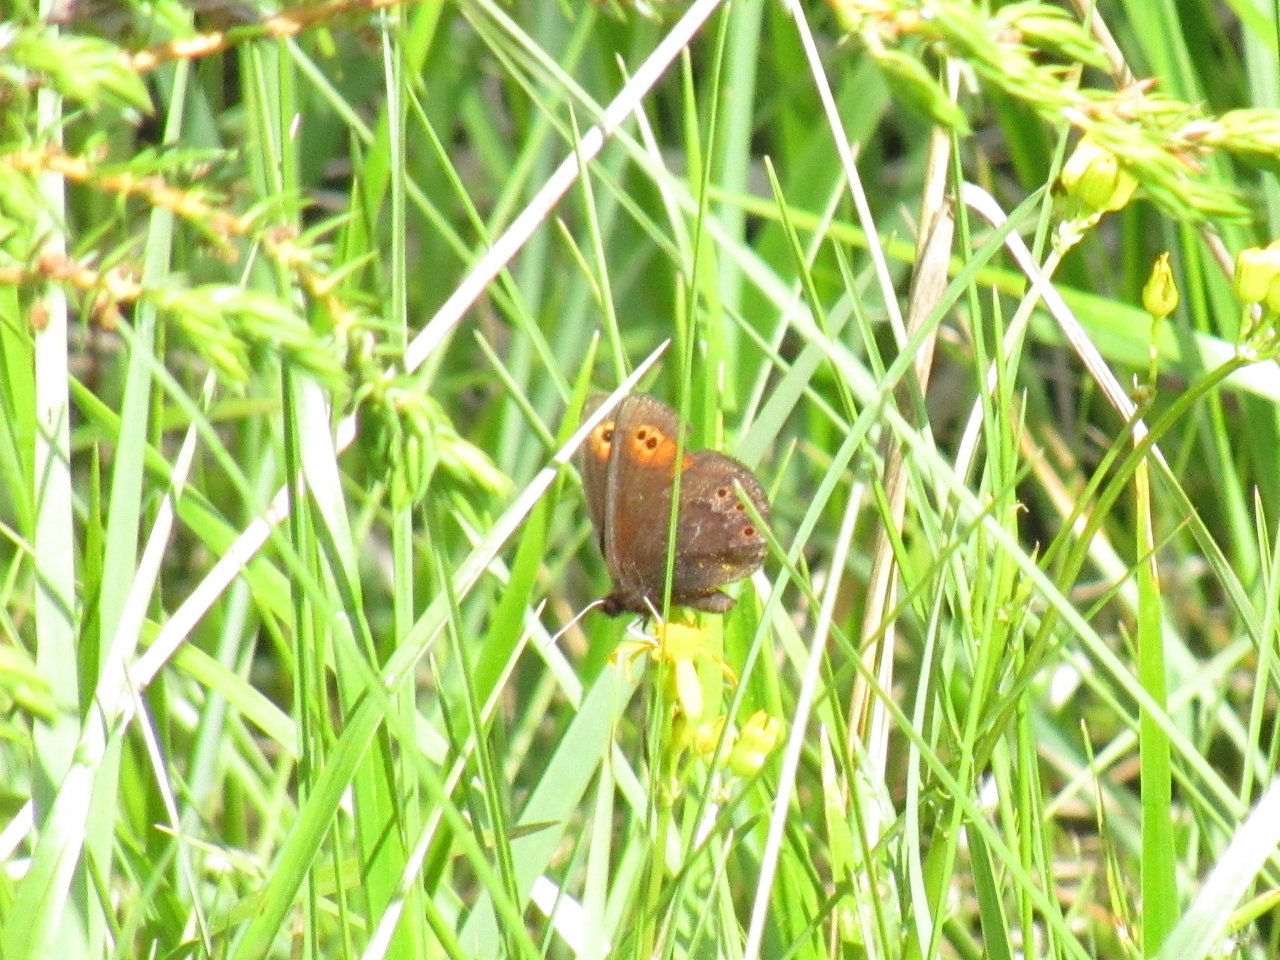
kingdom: Animalia
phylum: Arthropoda
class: Insecta
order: Lepidoptera
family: Nymphalidae
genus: Erebia
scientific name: Erebia epipsodea
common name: Common Alpine
